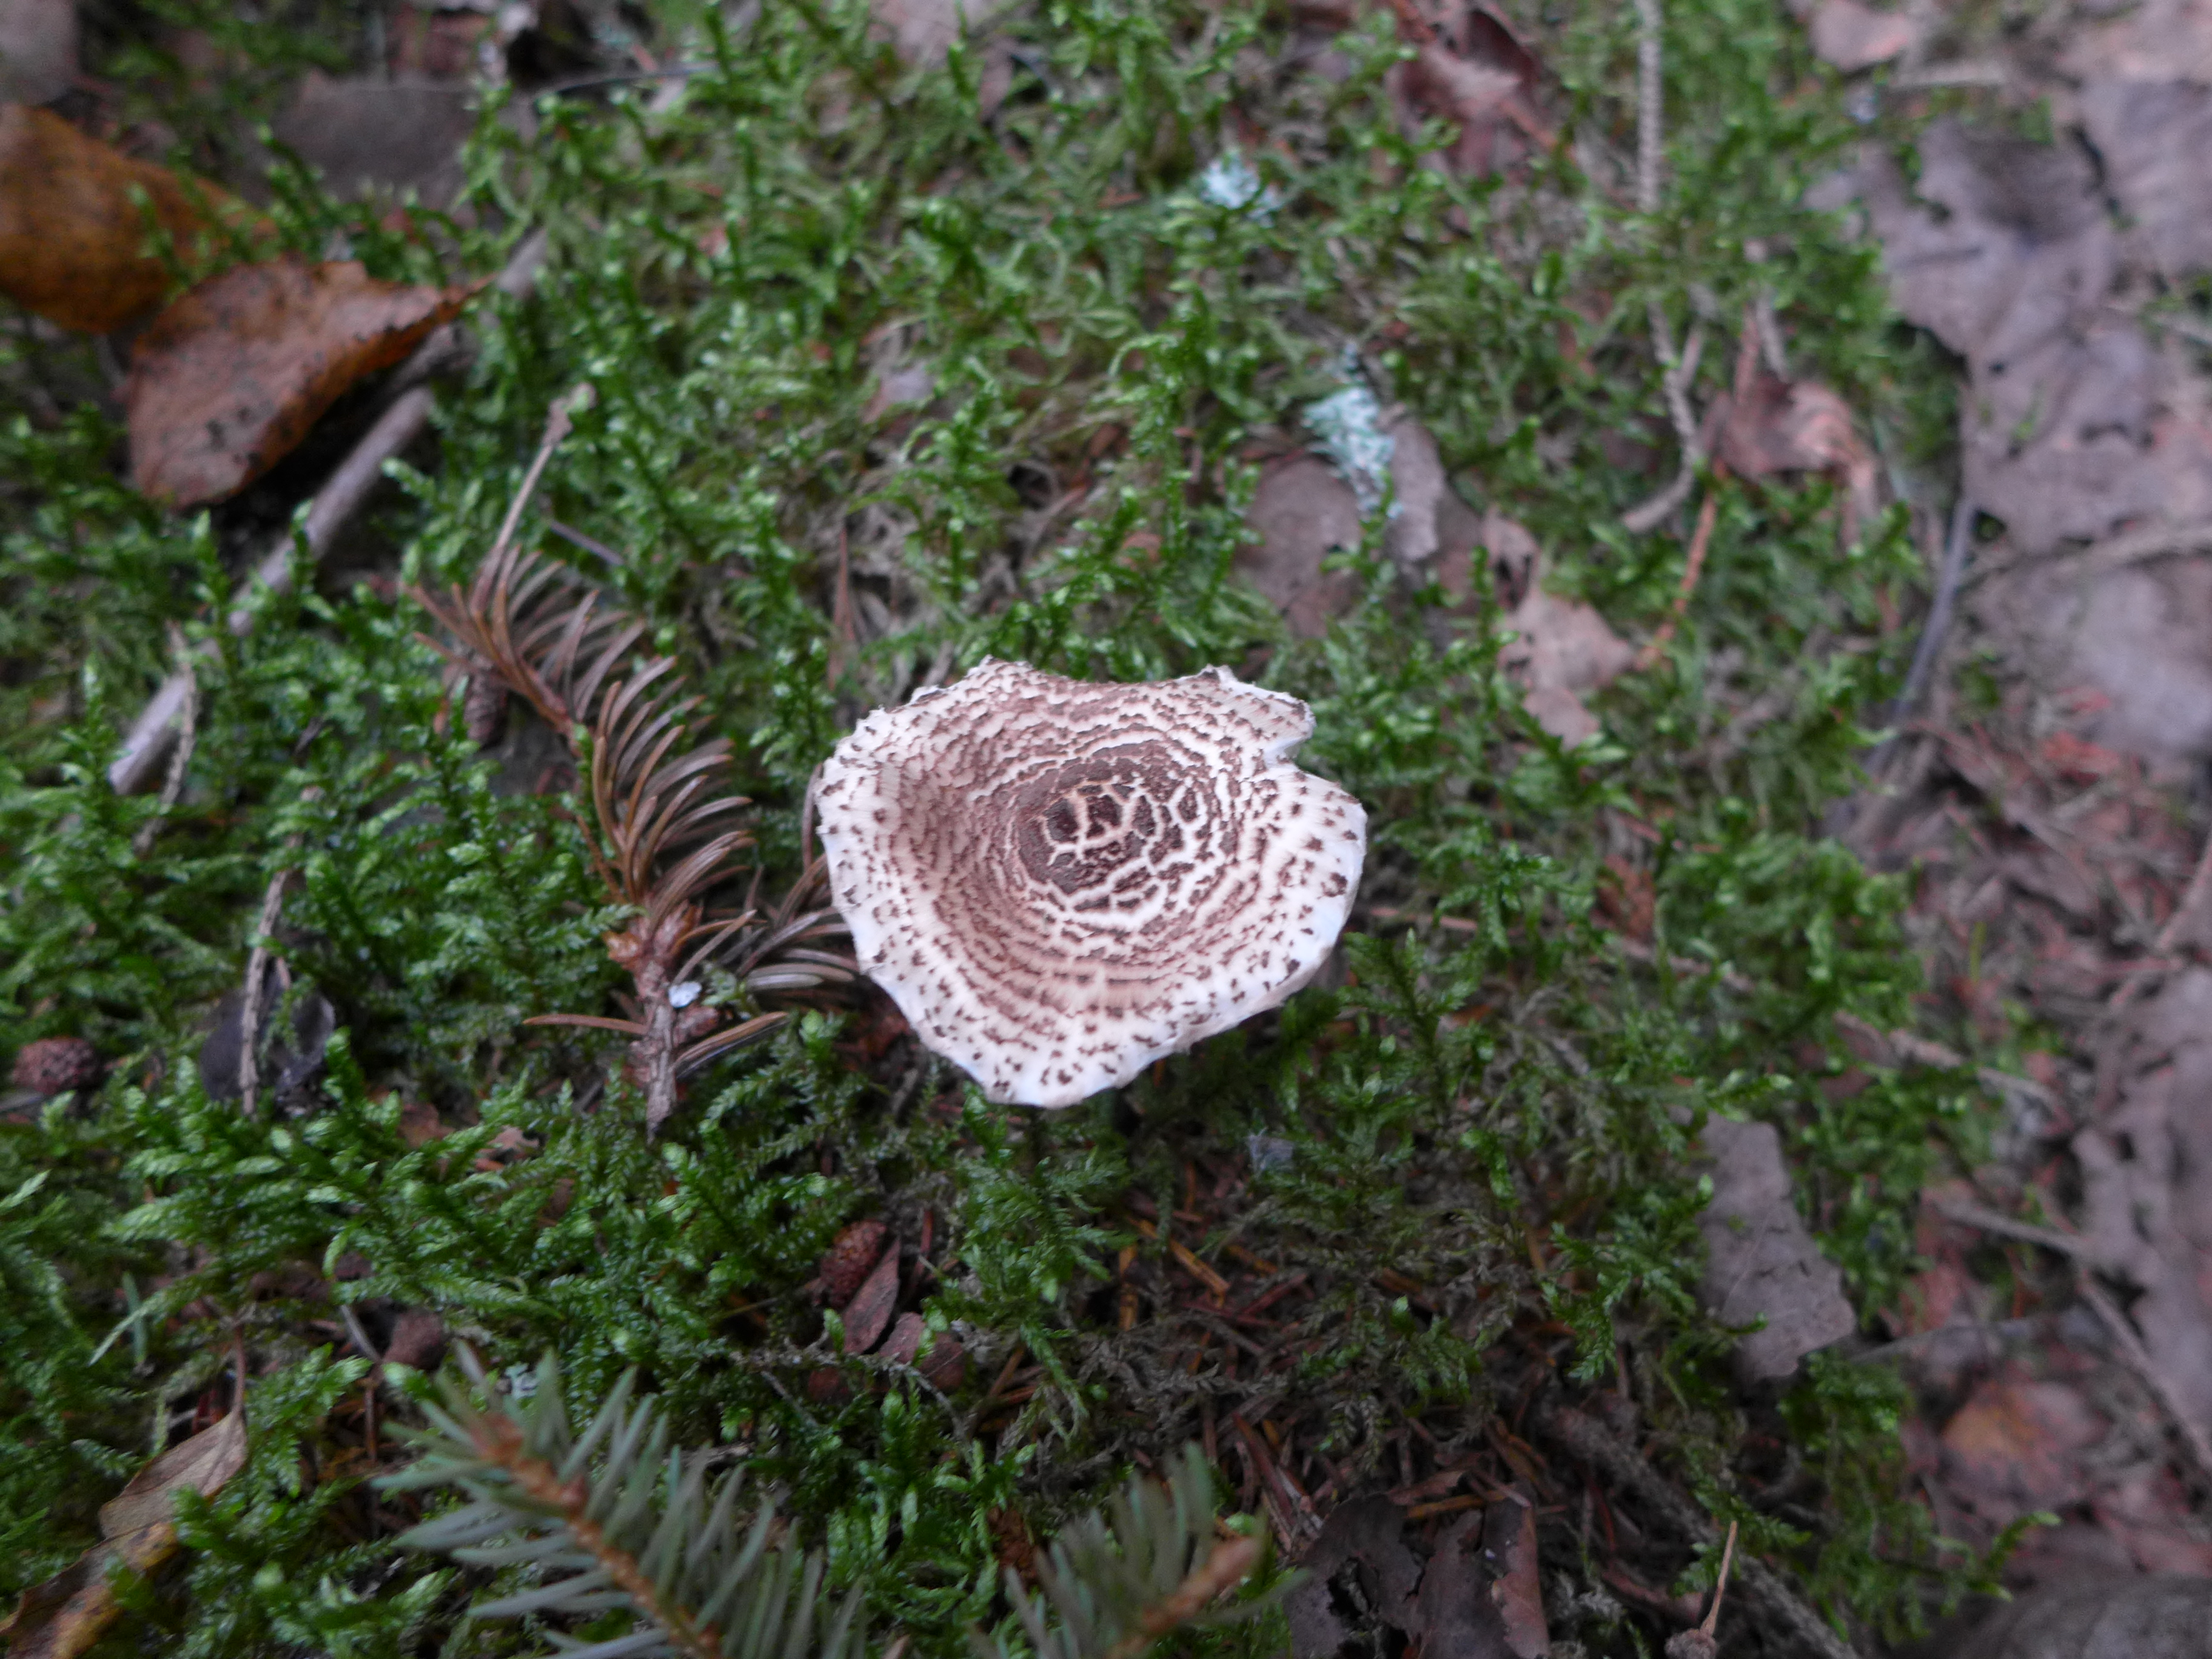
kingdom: Fungi
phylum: Basidiomycota
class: Agaricomycetes
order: Agaricales
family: Agaricaceae
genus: Lepiota
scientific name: Lepiota cortinarius
